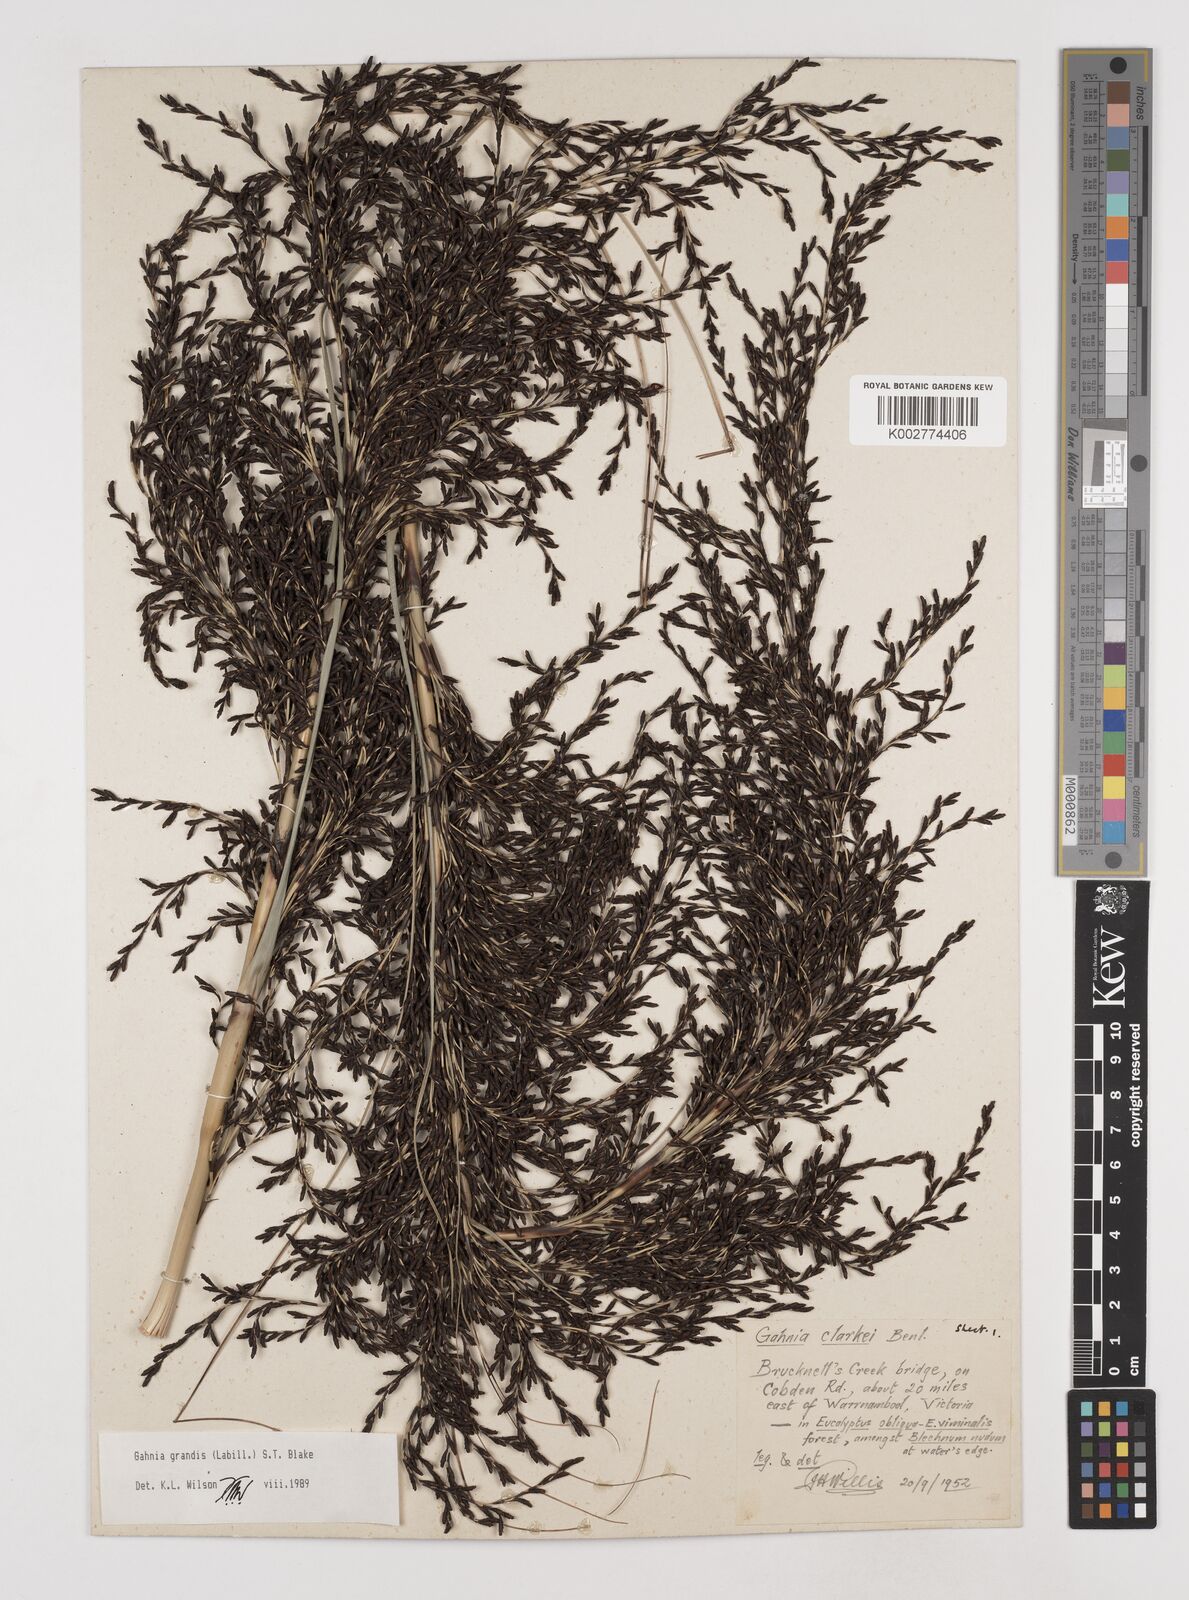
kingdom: Plantae
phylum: Tracheophyta
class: Liliopsida
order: Poales
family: Cyperaceae
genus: Gahnia
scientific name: Gahnia grandis
